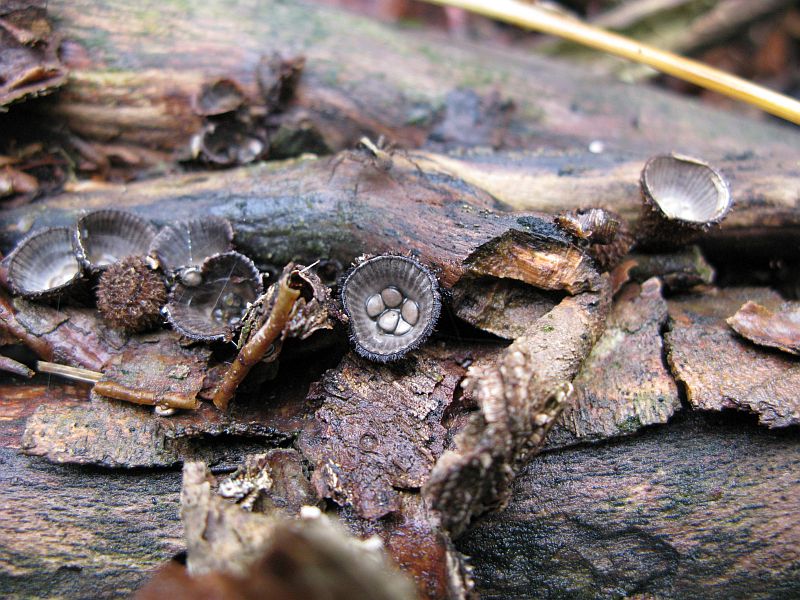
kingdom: Fungi
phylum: Basidiomycota
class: Agaricomycetes
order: Agaricales
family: Agaricaceae
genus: Cyathus
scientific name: Cyathus striatus
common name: stribet redesvamp
